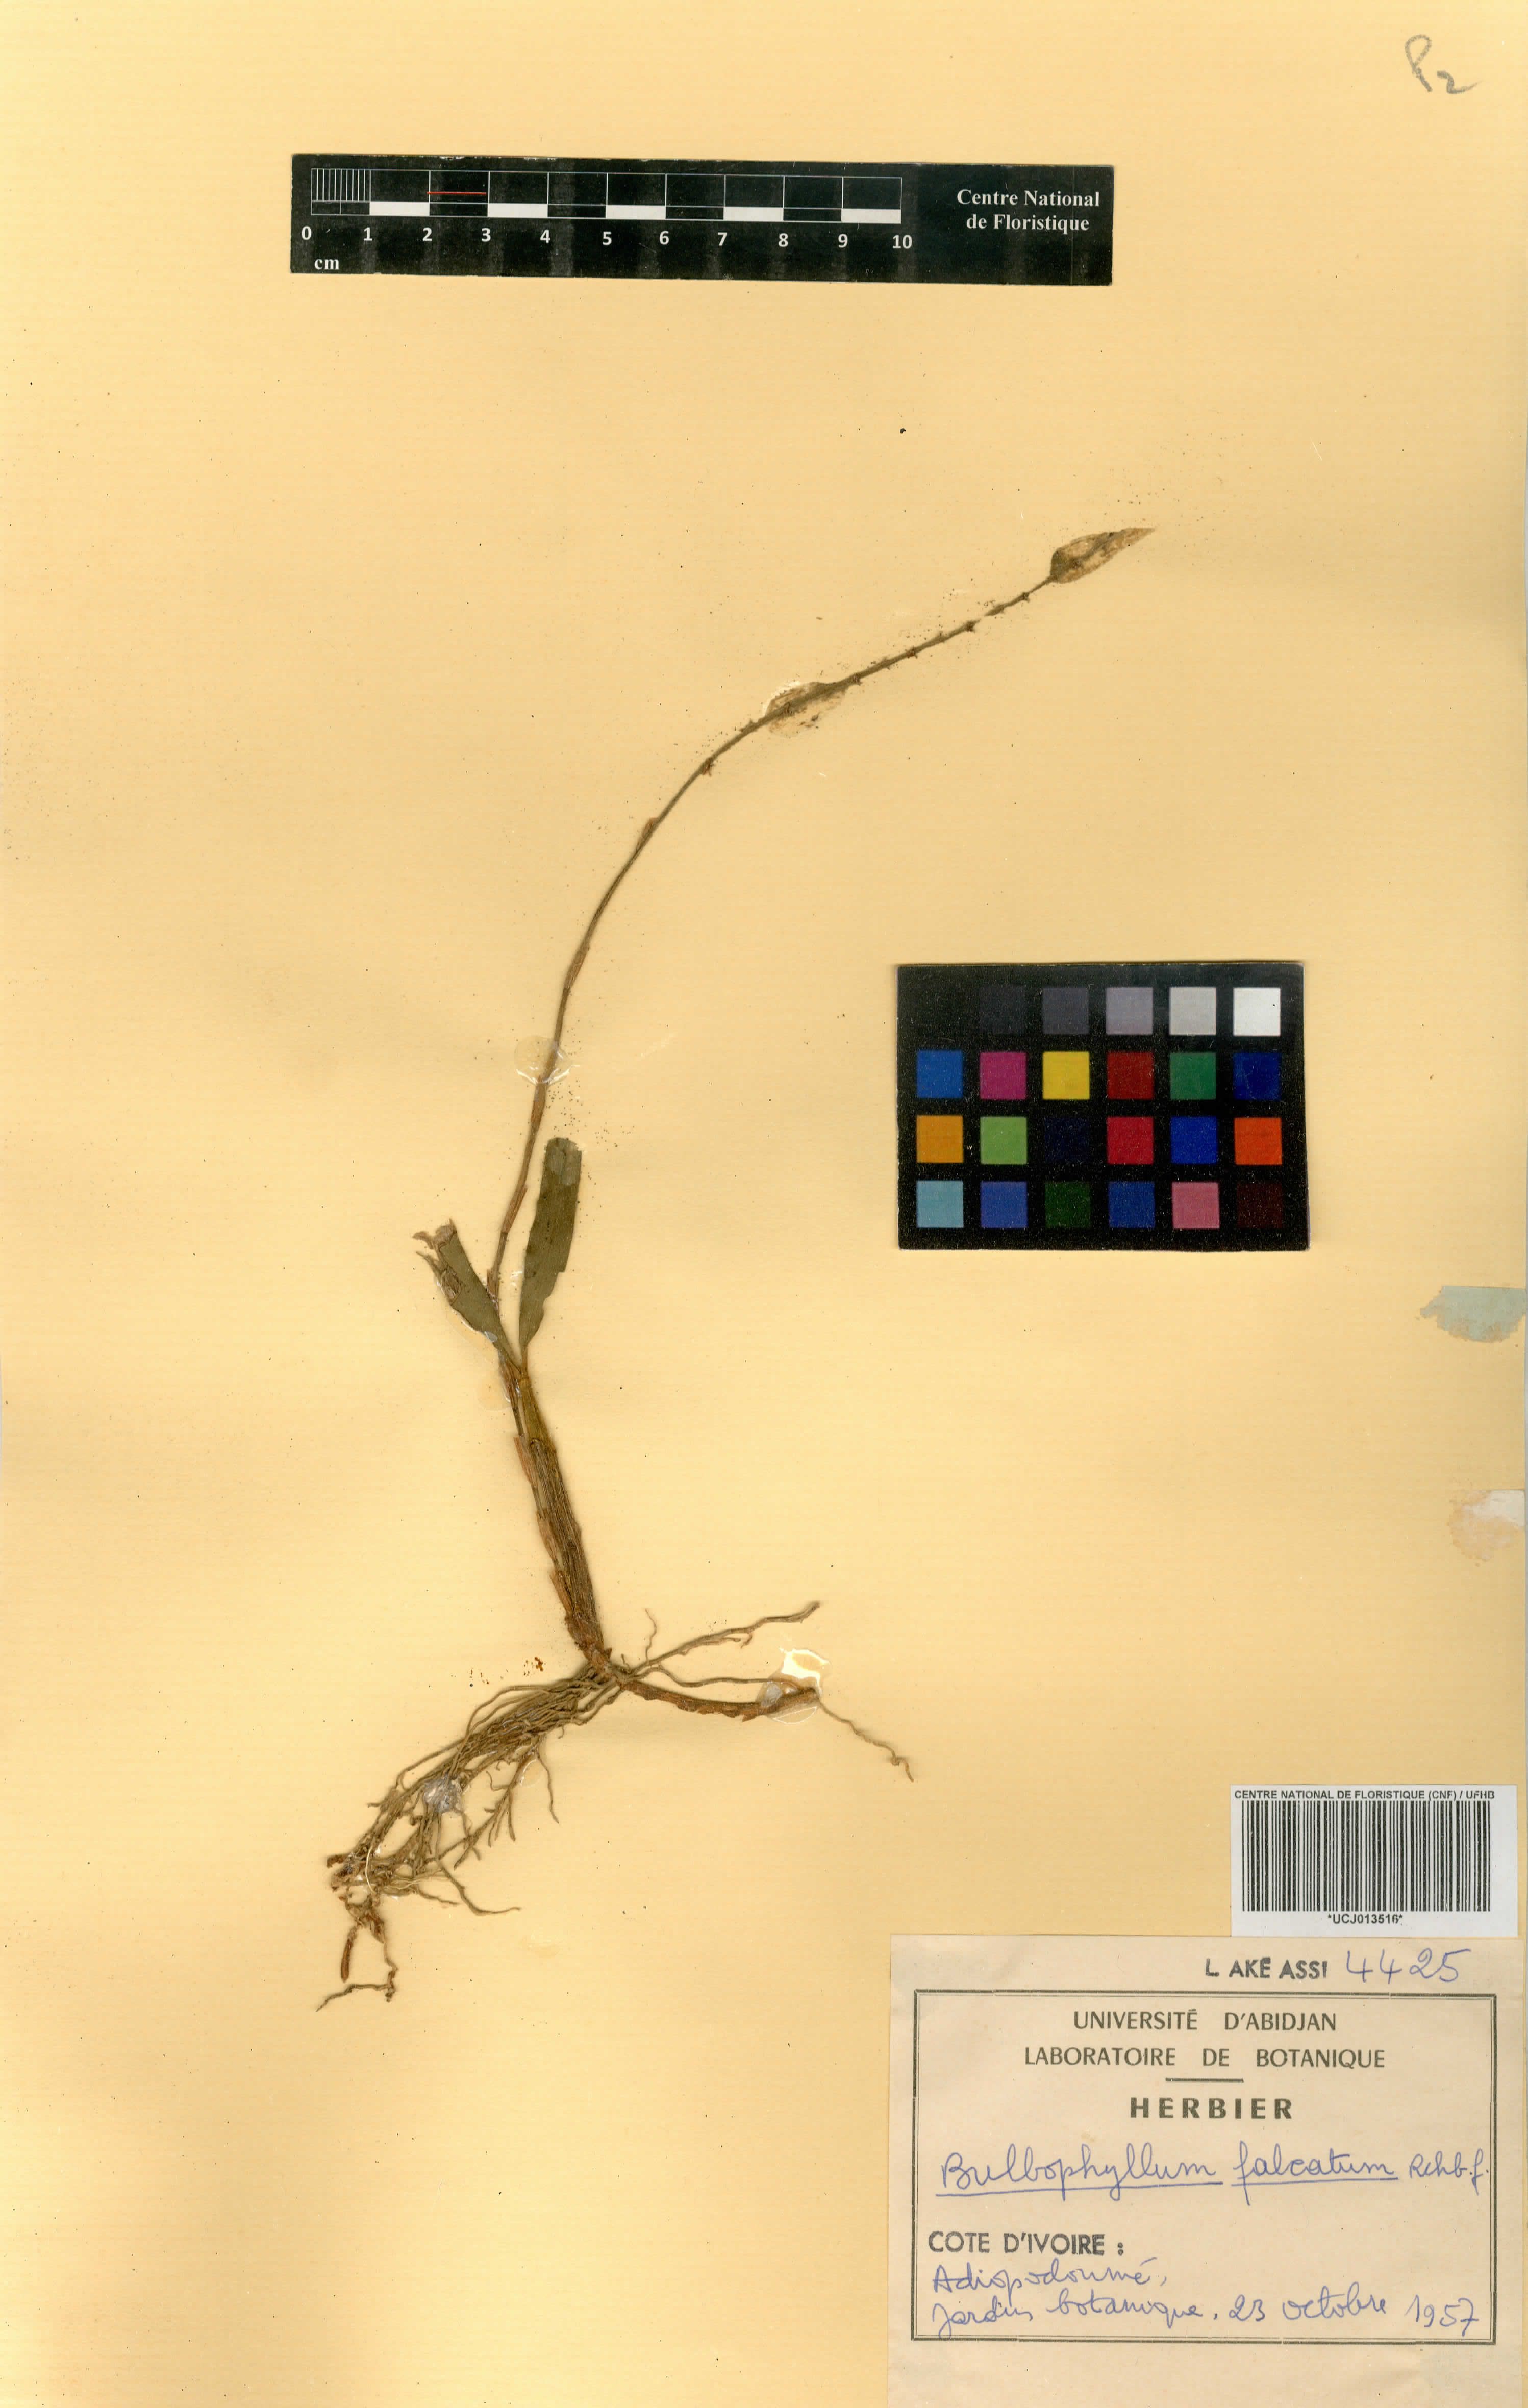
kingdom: Plantae
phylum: Tracheophyta
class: Liliopsida
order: Asparagales
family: Orchidaceae
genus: Bulbophyllum
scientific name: Bulbophyllum falcatum
